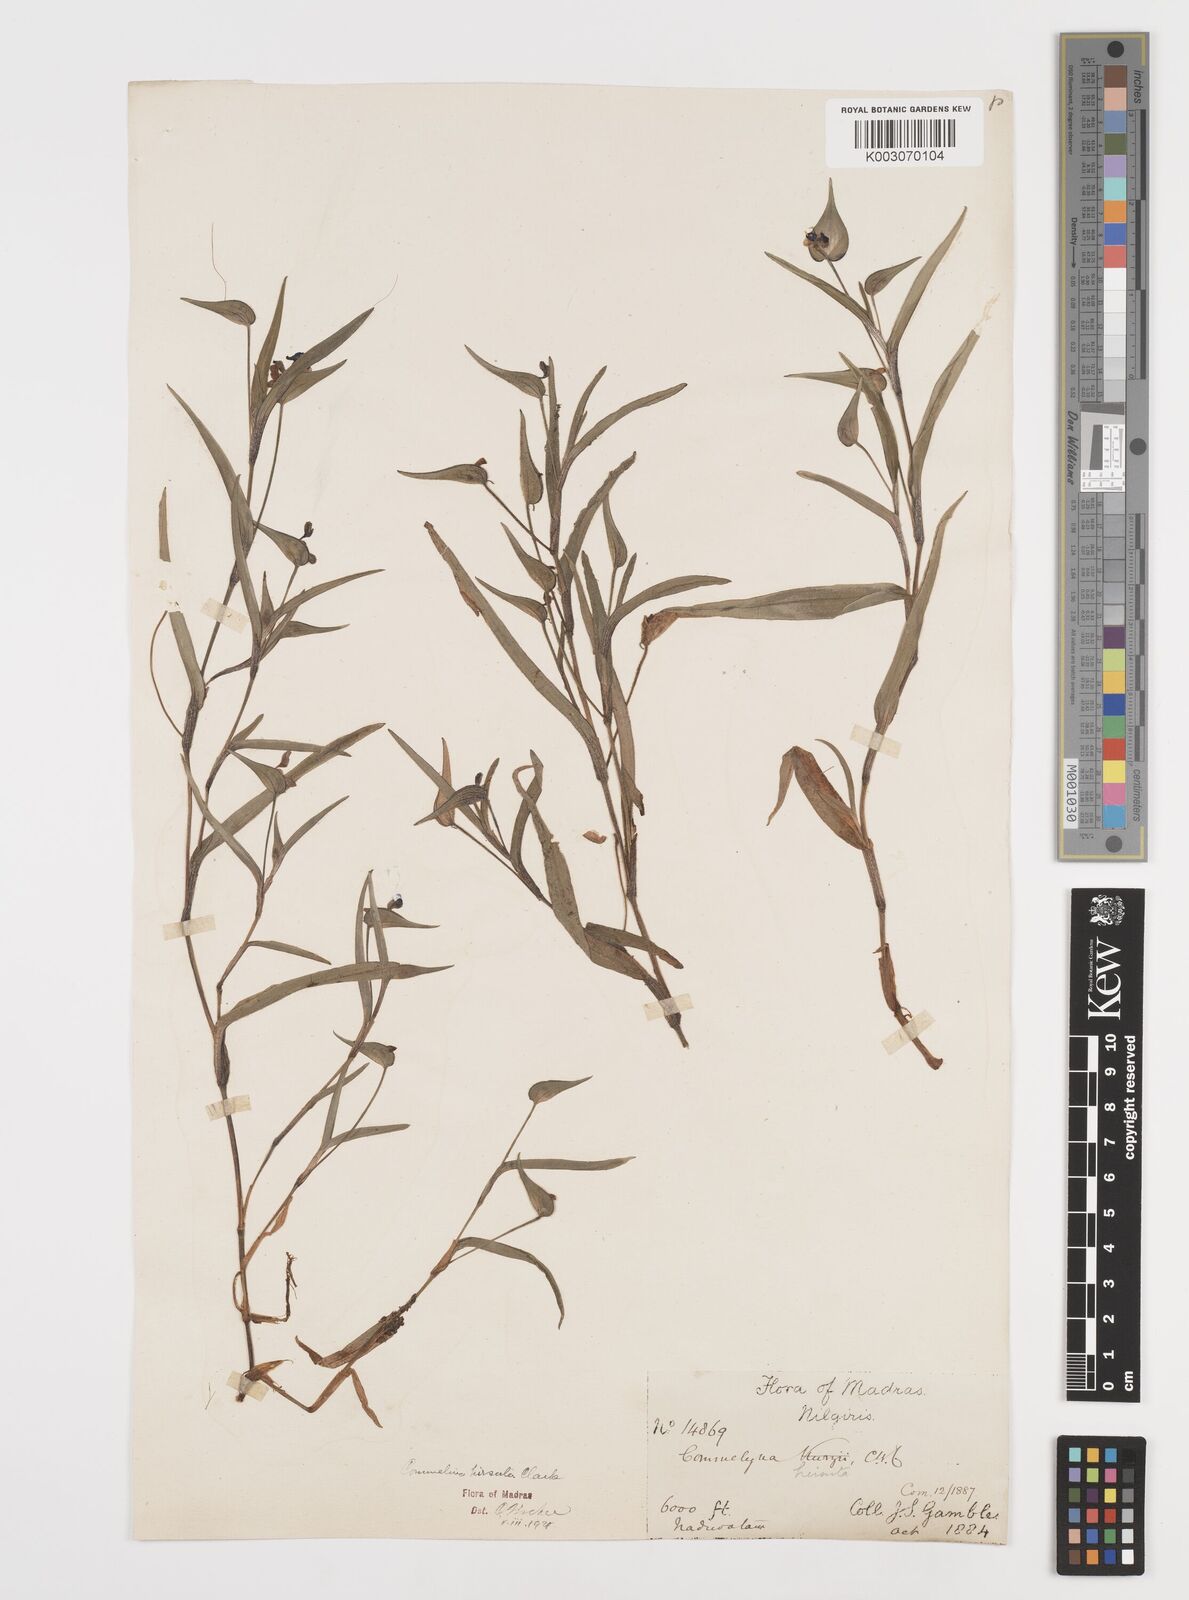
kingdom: Plantae
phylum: Tracheophyta
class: Liliopsida
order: Commelinales
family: Commelinaceae
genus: Commelina
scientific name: Commelina hirsuta
